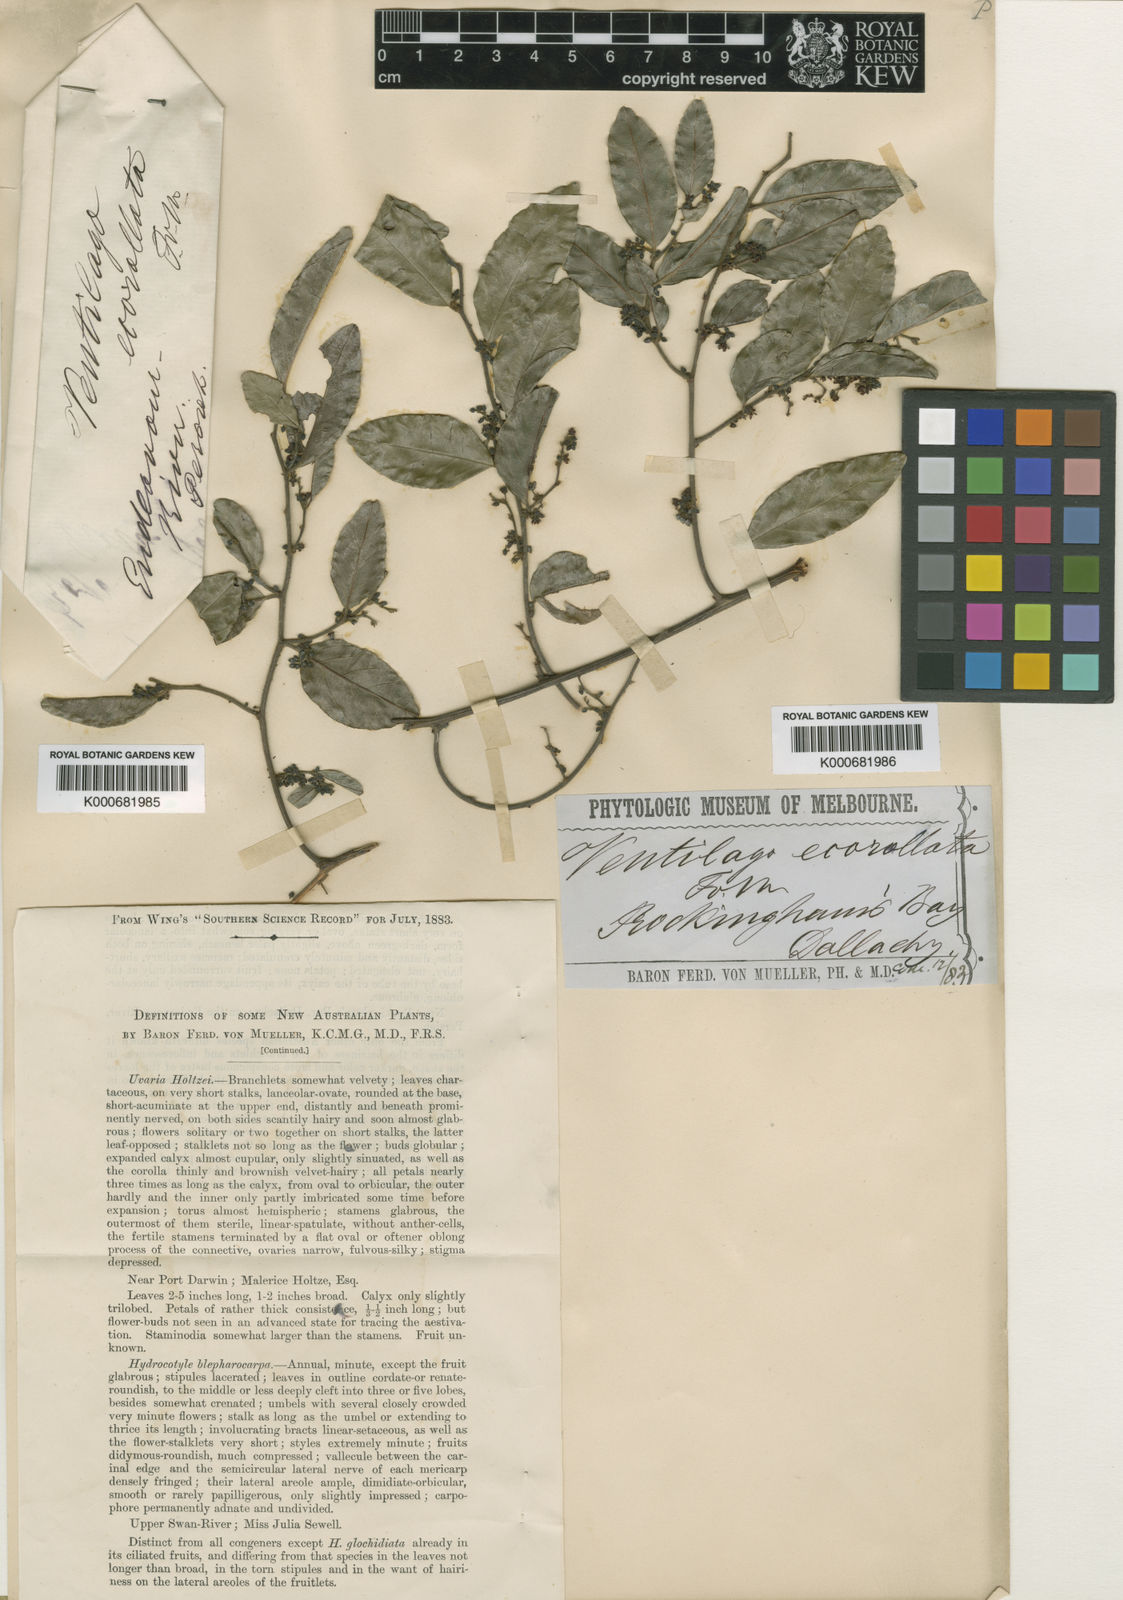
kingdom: Plantae
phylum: Tracheophyta
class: Magnoliopsida
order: Rosales
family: Rhamnaceae
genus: Ventilago
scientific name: Ventilago ecorollata
